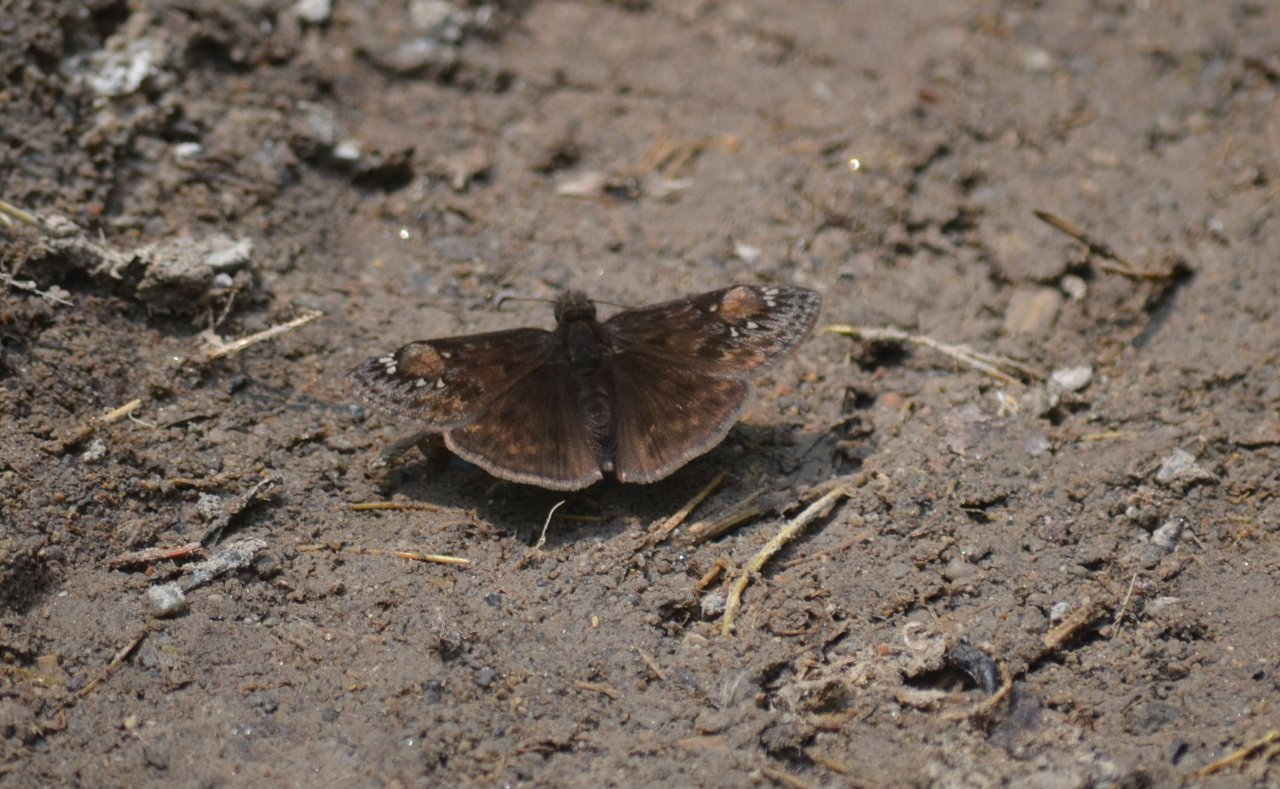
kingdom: Animalia
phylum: Arthropoda
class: Insecta
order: Lepidoptera
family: Hesperiidae
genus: Gesta
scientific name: Gesta
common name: Juvenal's Duskywing
